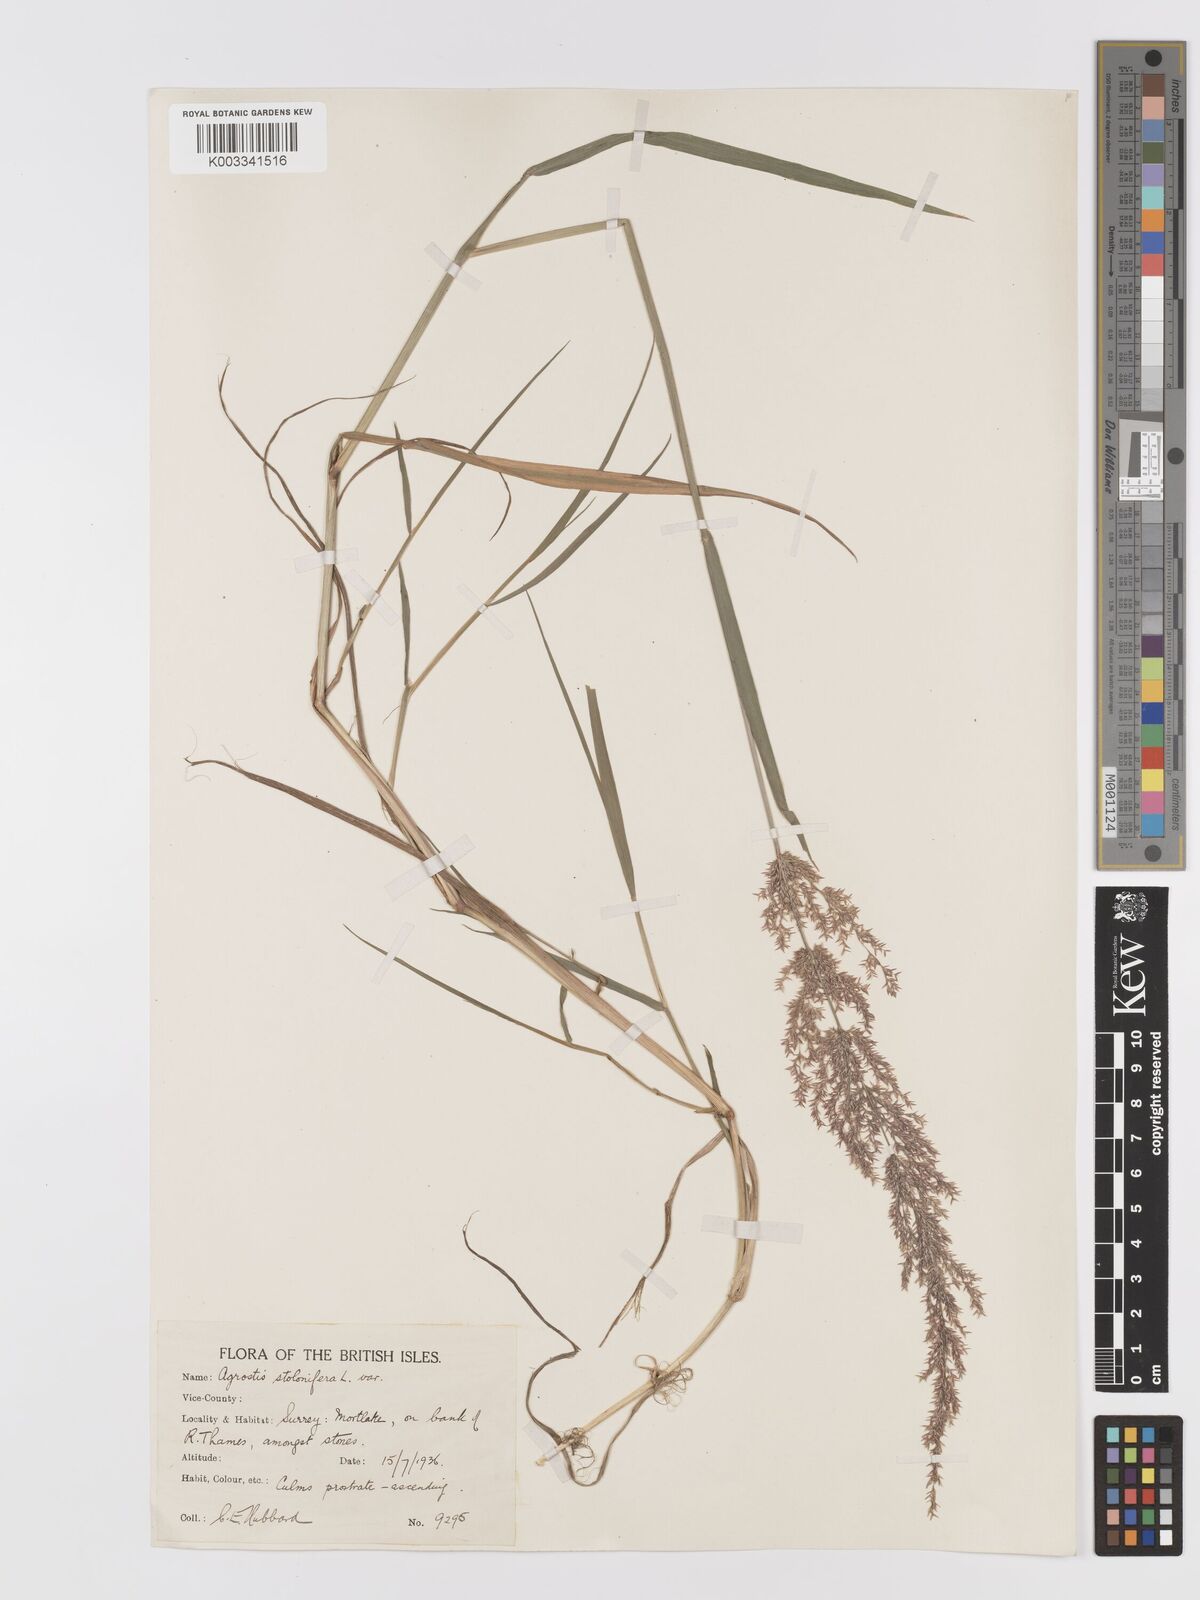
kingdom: Plantae
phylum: Tracheophyta
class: Liliopsida
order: Poales
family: Poaceae
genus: Agrostis
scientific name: Agrostis stolonifera
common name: Creeping bentgrass
